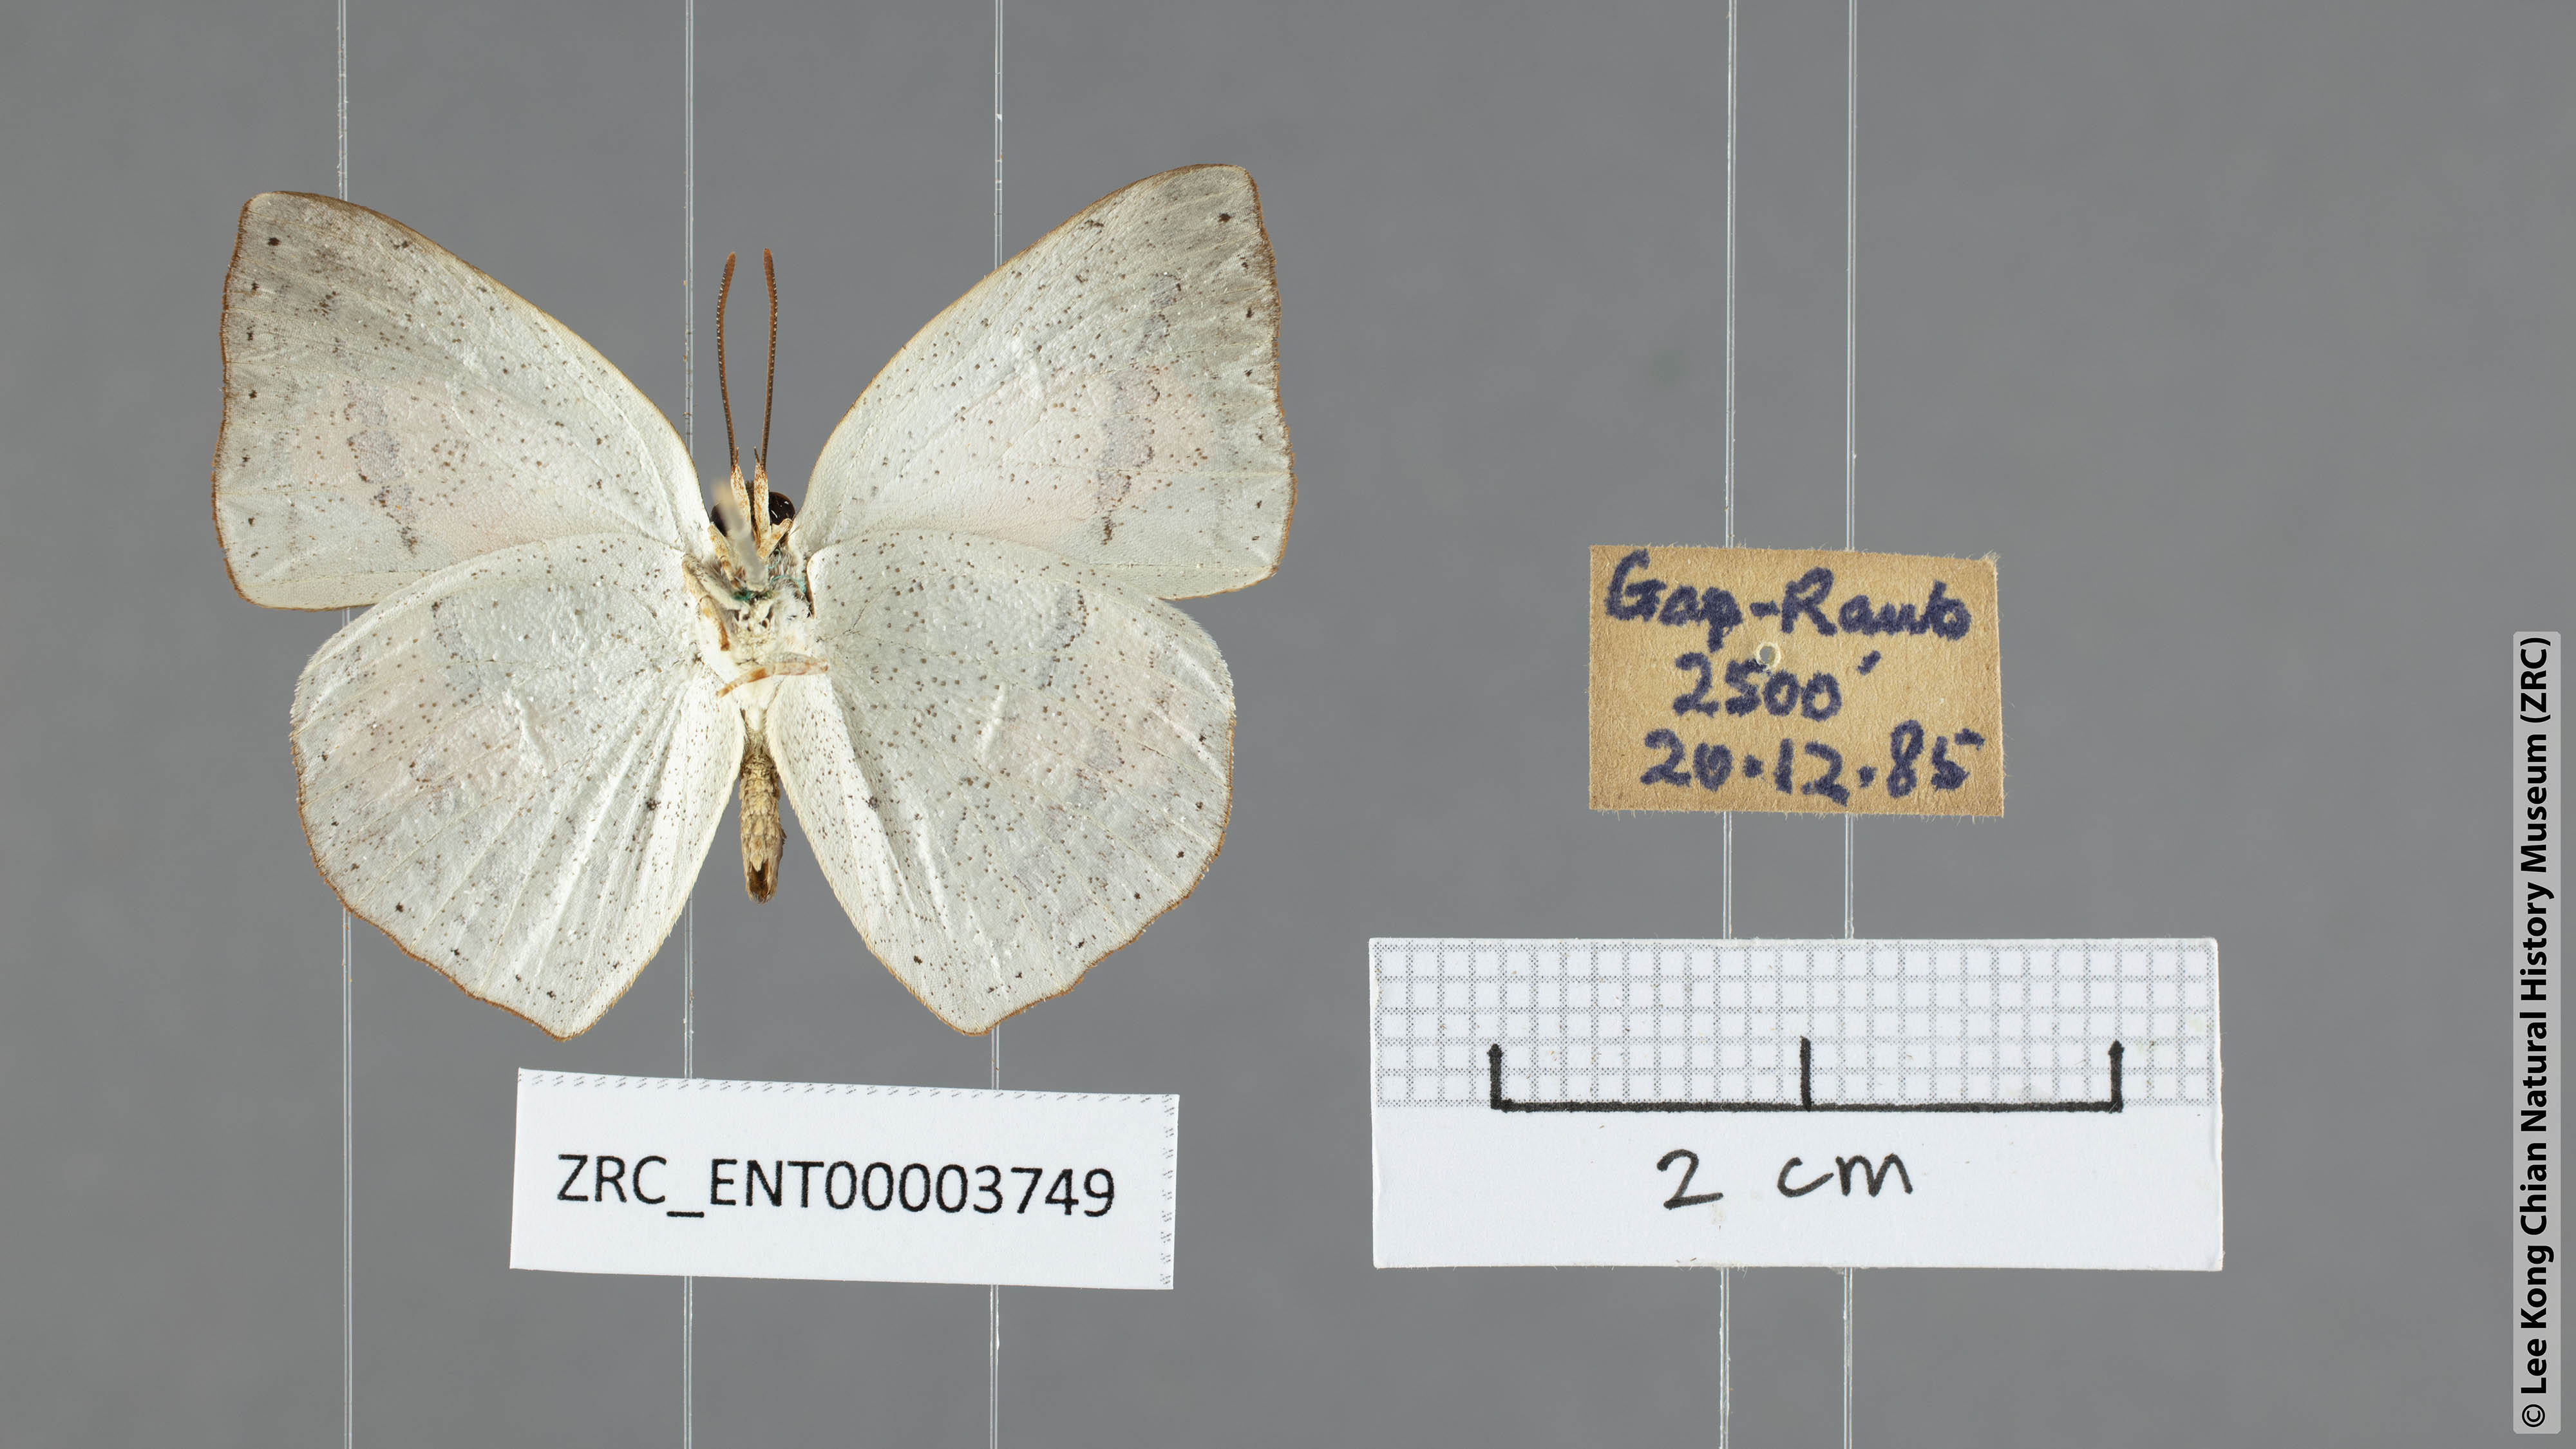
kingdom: Animalia
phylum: Arthropoda
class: Insecta
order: Lepidoptera
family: Lycaenidae
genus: Curetis
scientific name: Curetis santana
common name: Malayan sunbeam
